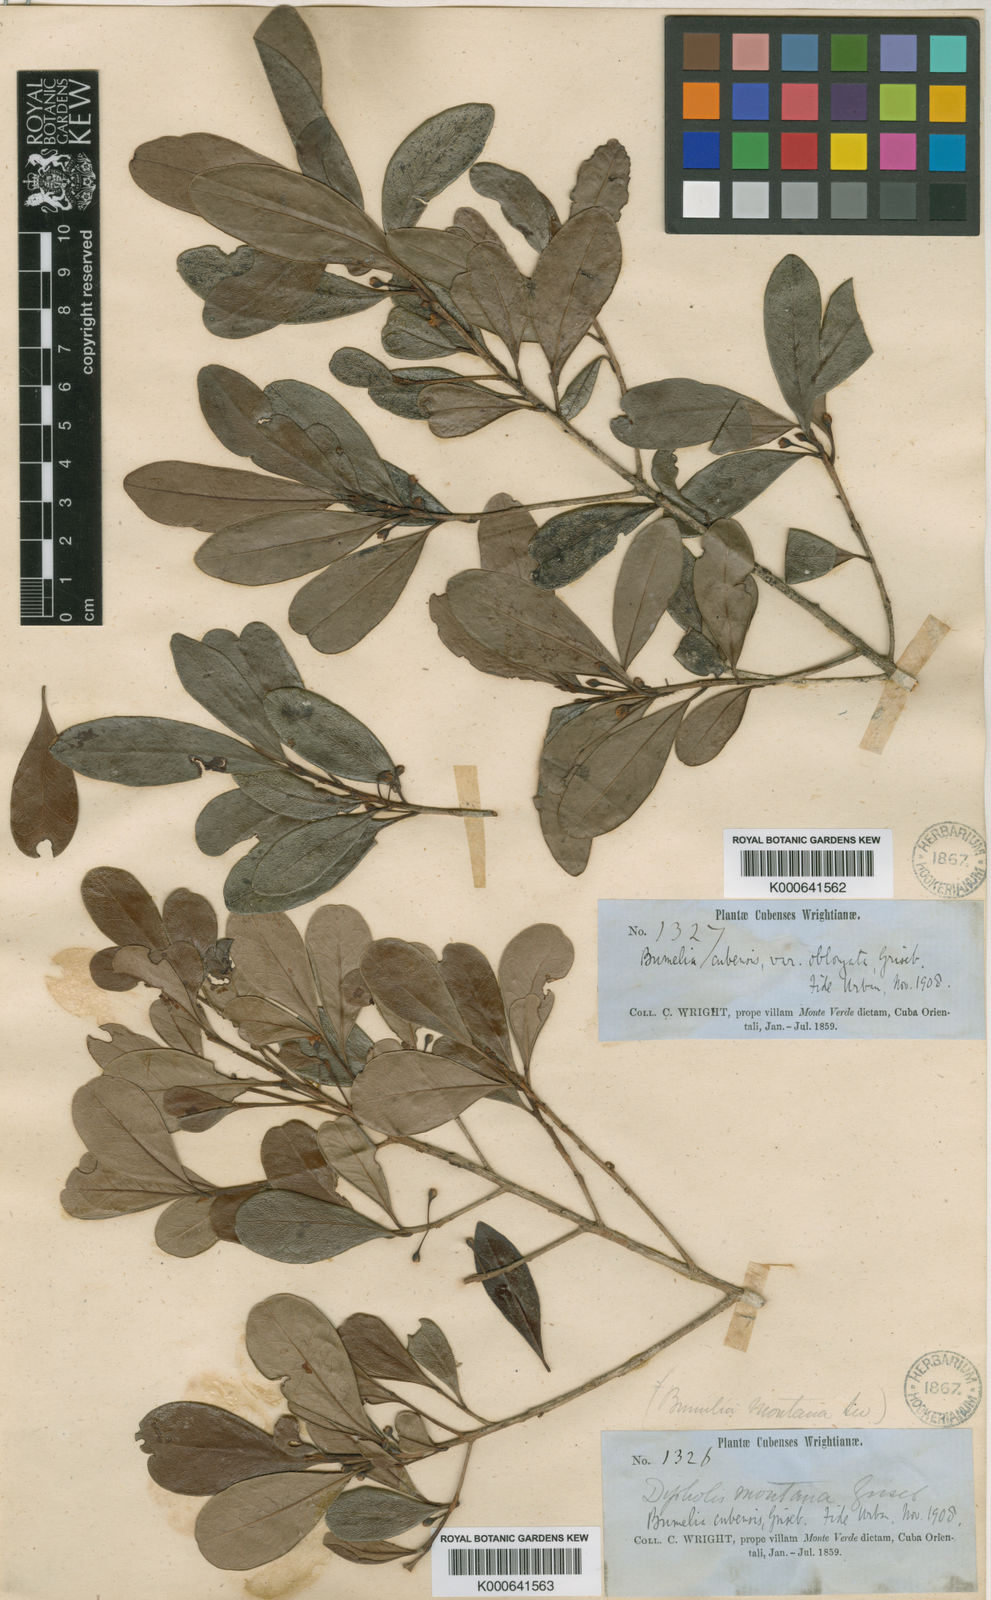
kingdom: Plantae
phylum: Tracheophyta
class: Magnoliopsida
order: Ericales
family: Sapotaceae
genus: Sideroxylon
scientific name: Sideroxylon cubense
